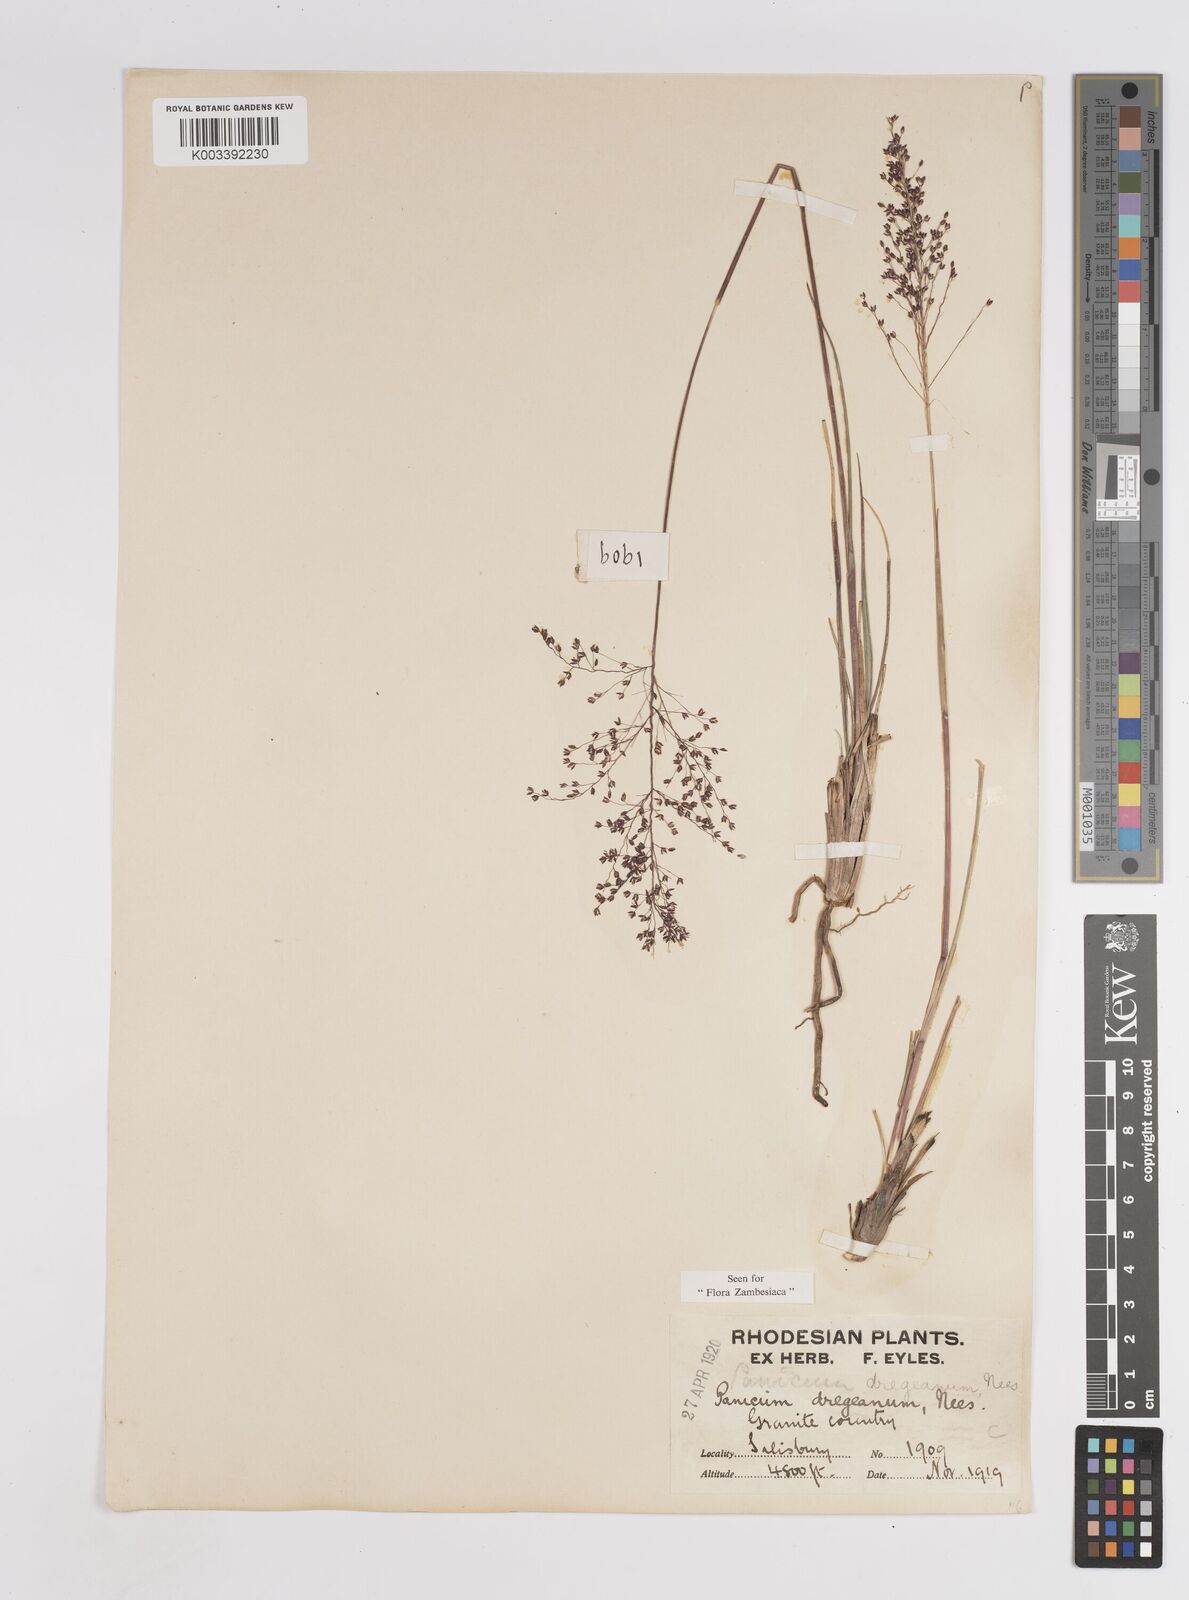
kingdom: Plantae
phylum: Tracheophyta
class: Liliopsida
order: Poales
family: Poaceae
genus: Panicum
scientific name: Panicum dregeanum
